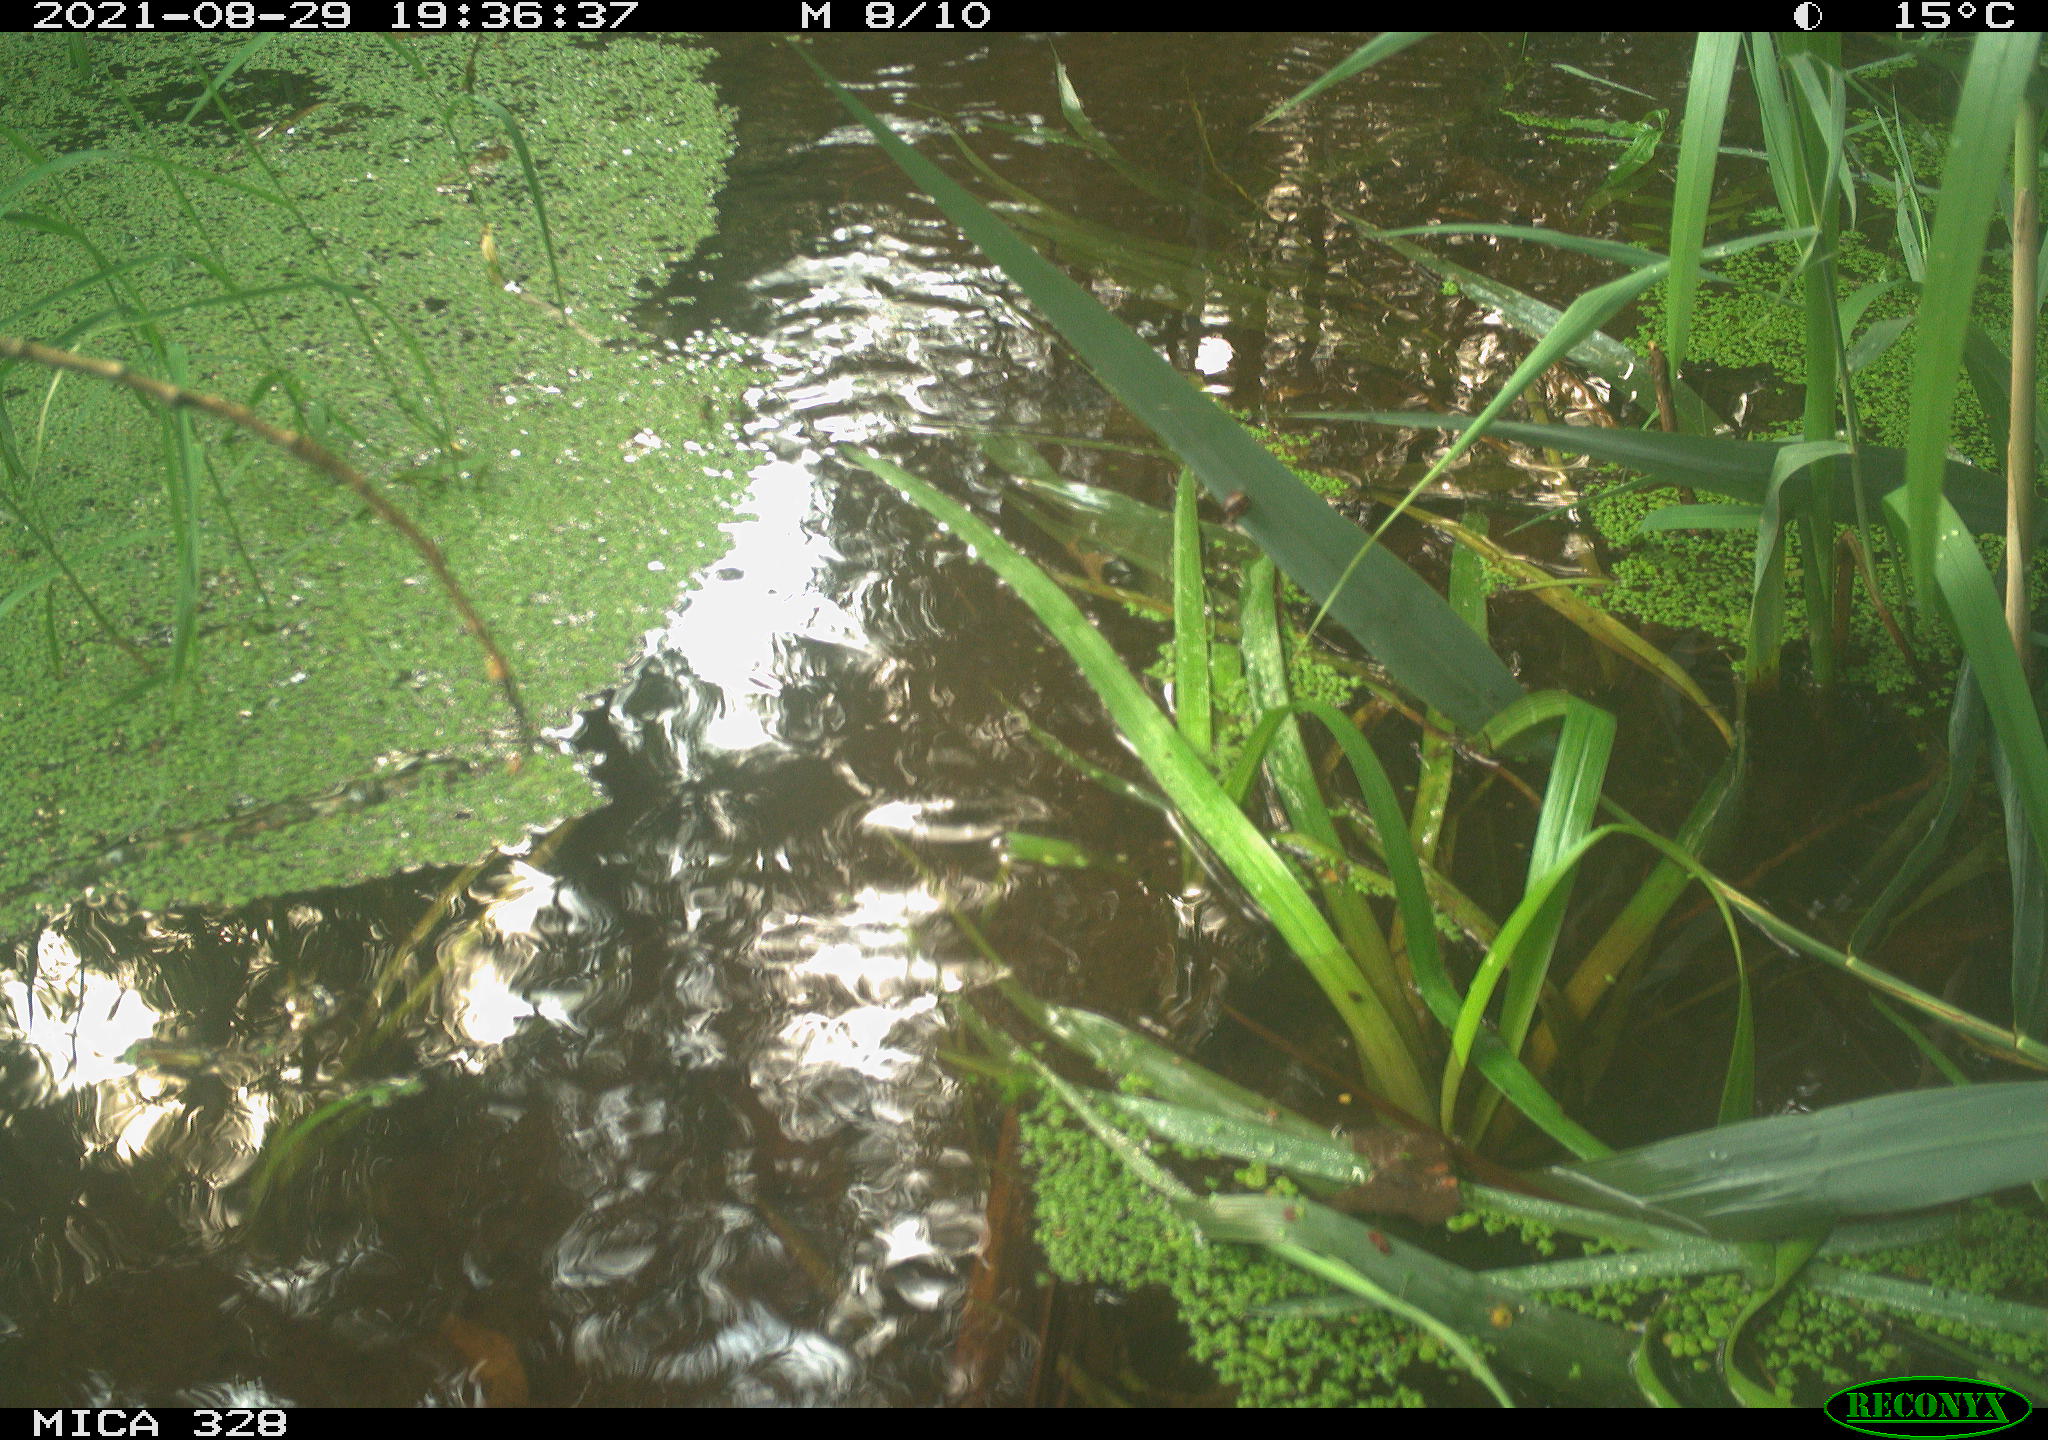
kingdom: Animalia
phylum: Chordata
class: Mammalia
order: Rodentia
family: Cricetidae
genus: Ondatra
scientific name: Ondatra zibethicus
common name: Muskrat
